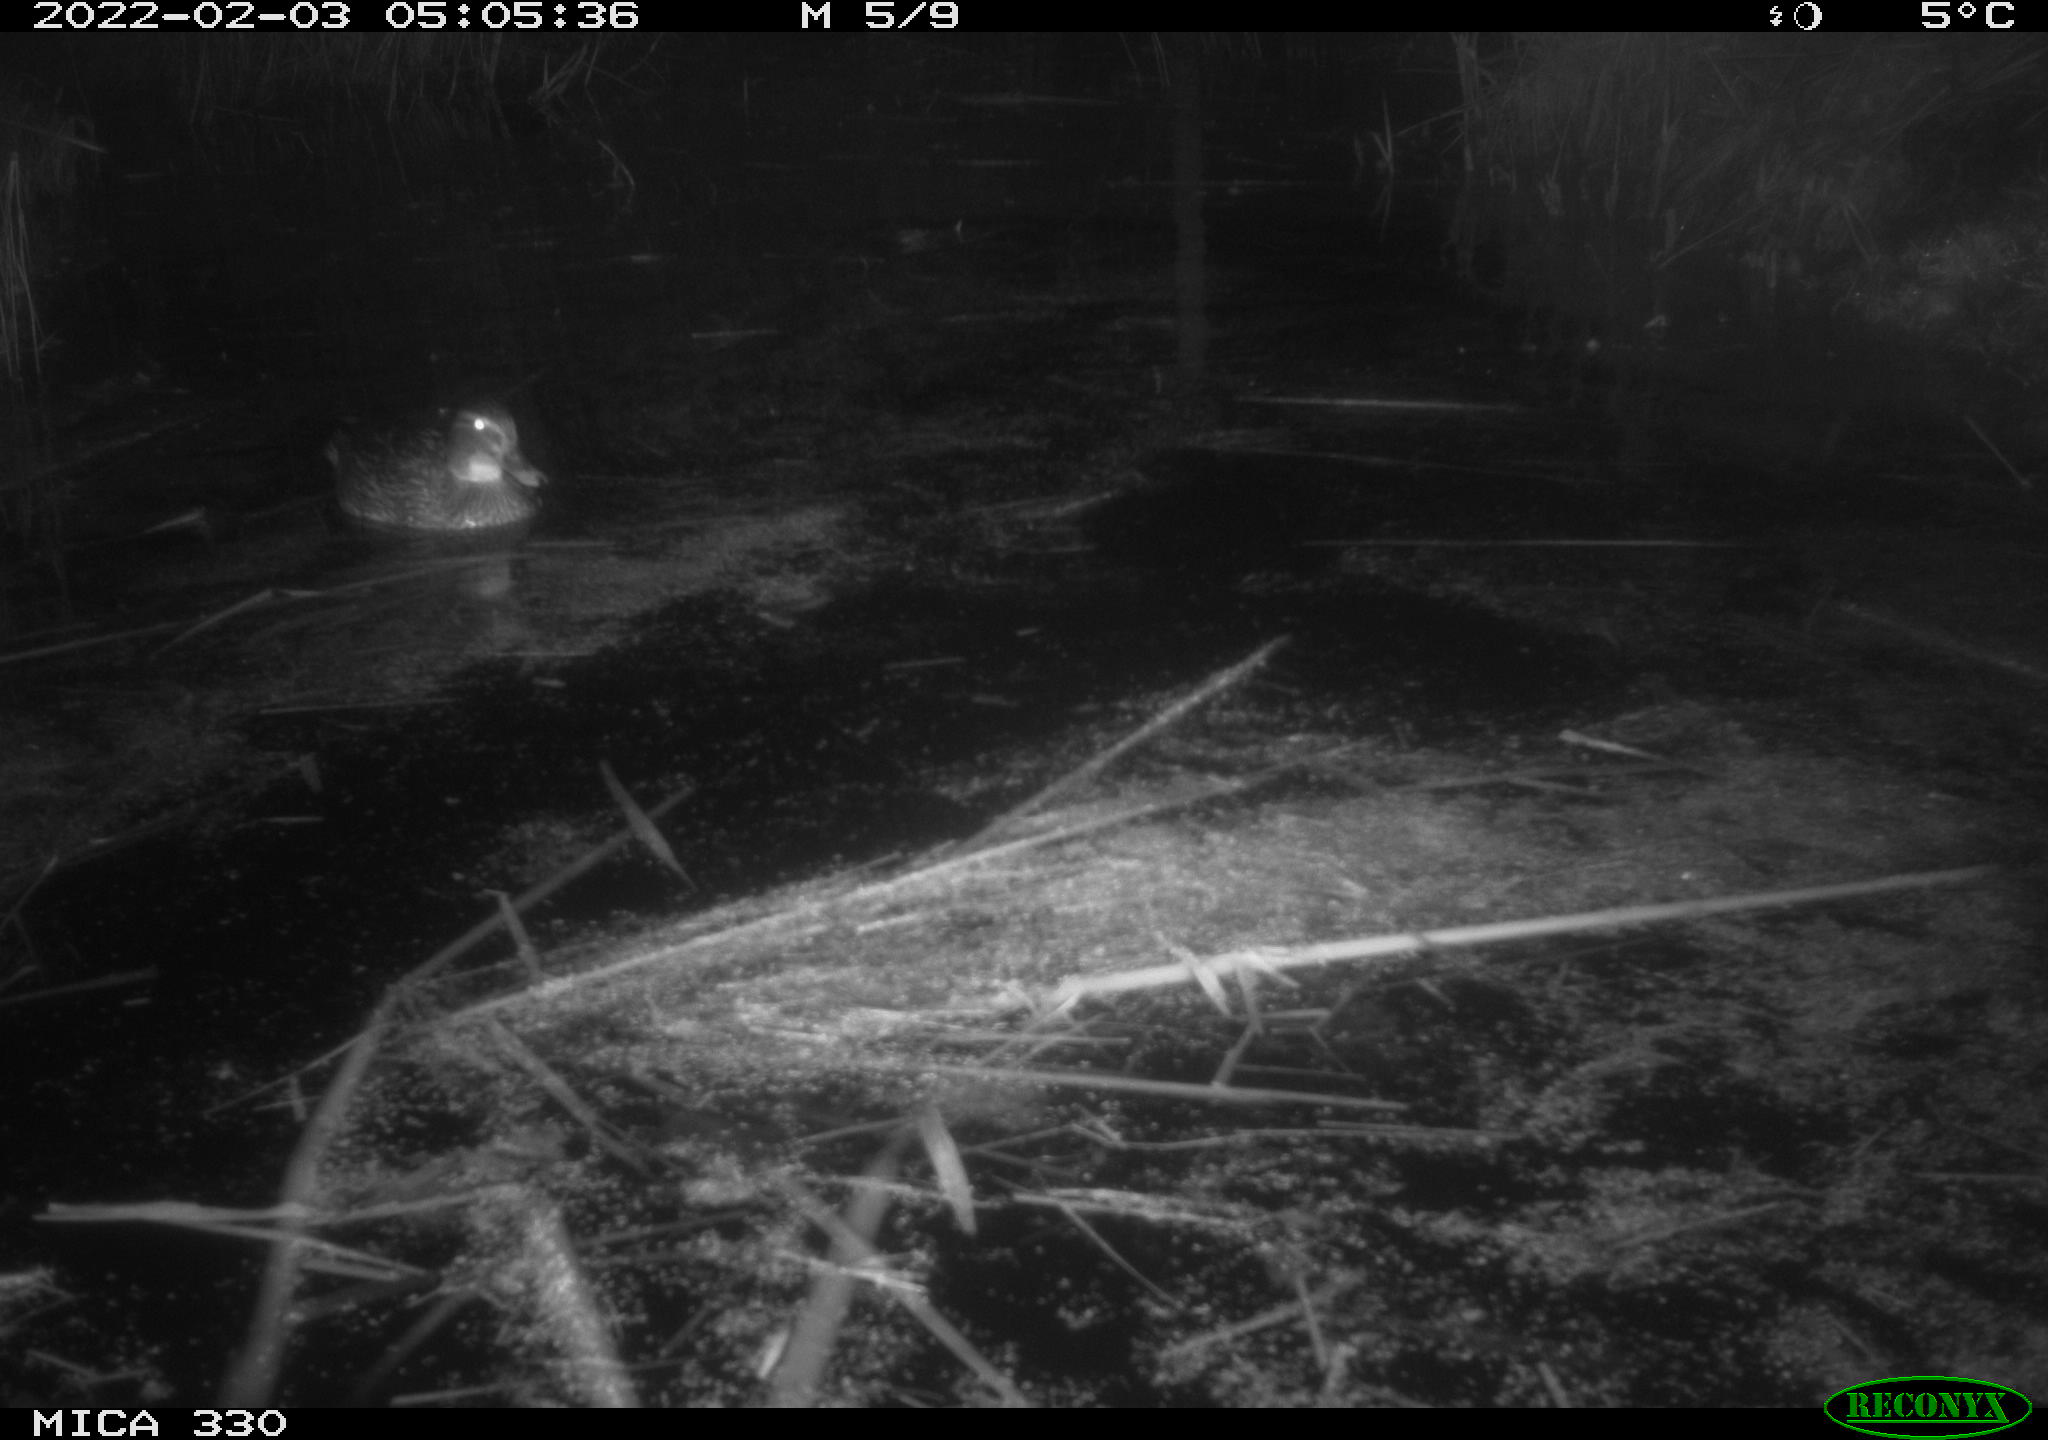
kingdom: Animalia
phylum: Chordata
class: Aves
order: Anseriformes
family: Anatidae
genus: Anas
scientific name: Anas platyrhynchos
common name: Mallard
